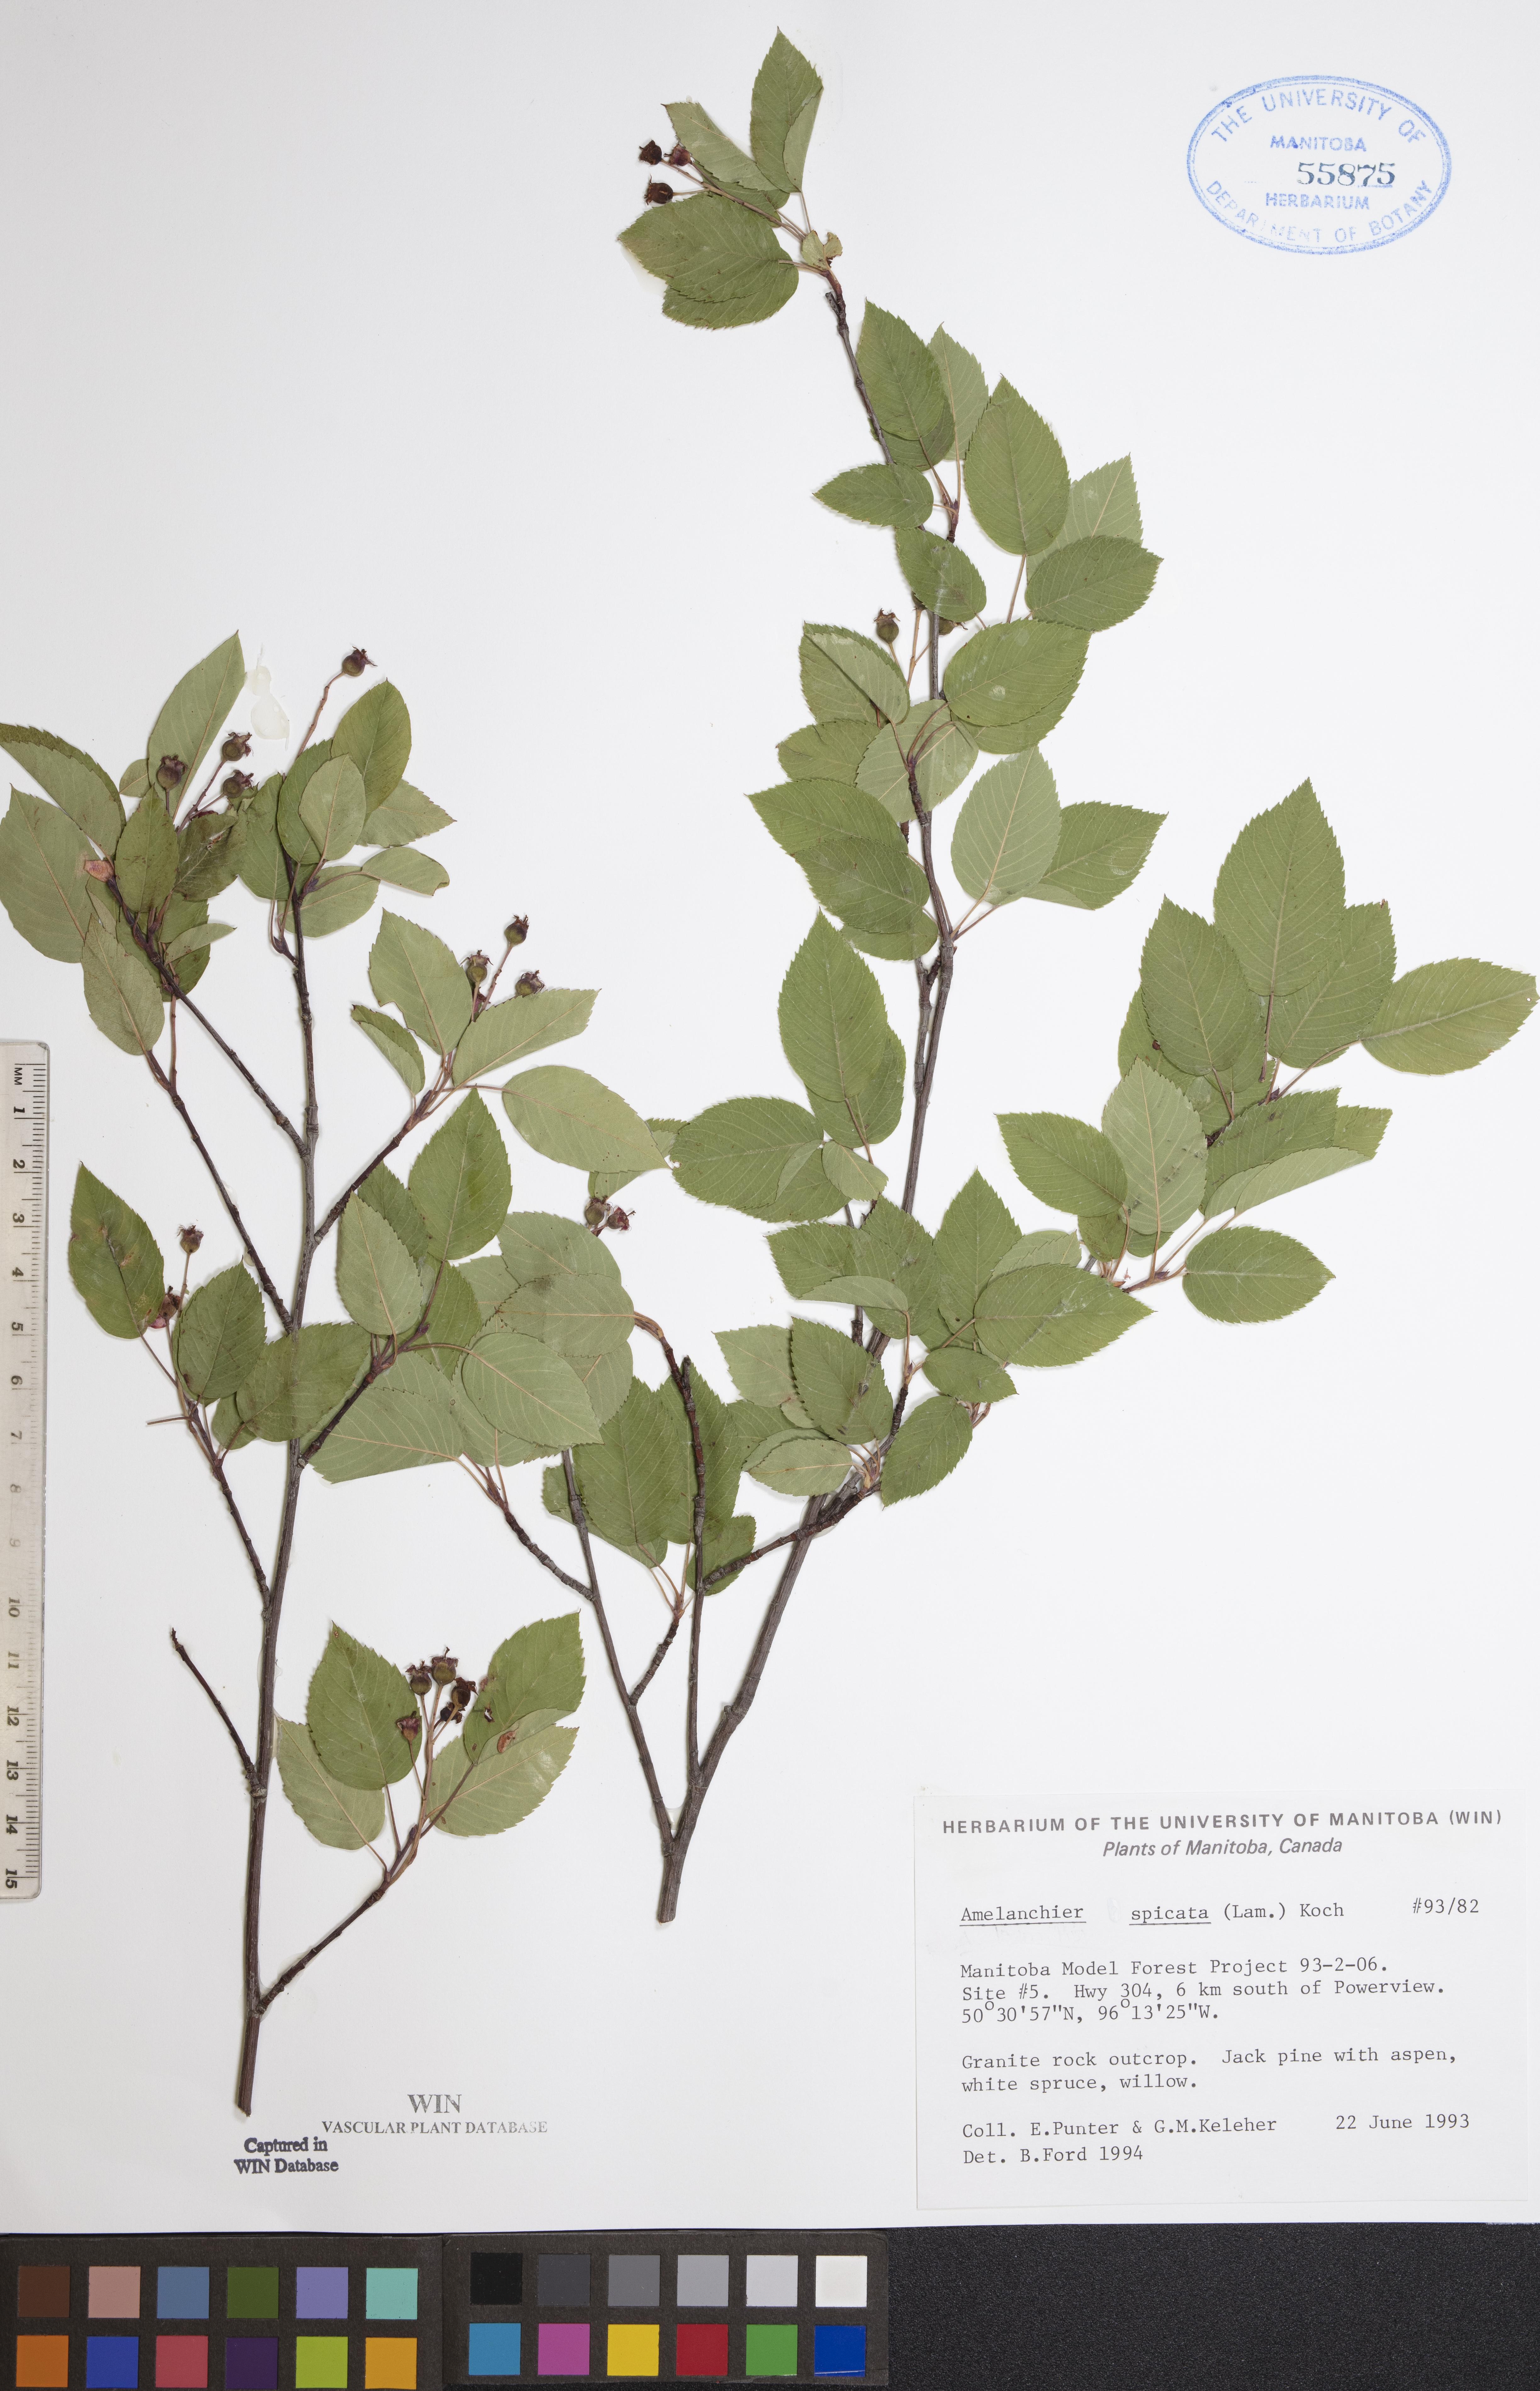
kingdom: Plantae
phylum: Tracheophyta
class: Magnoliopsida
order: Rosales
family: Rosaceae
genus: Amelanchier
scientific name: Amelanchier humilis
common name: Low juneberry
